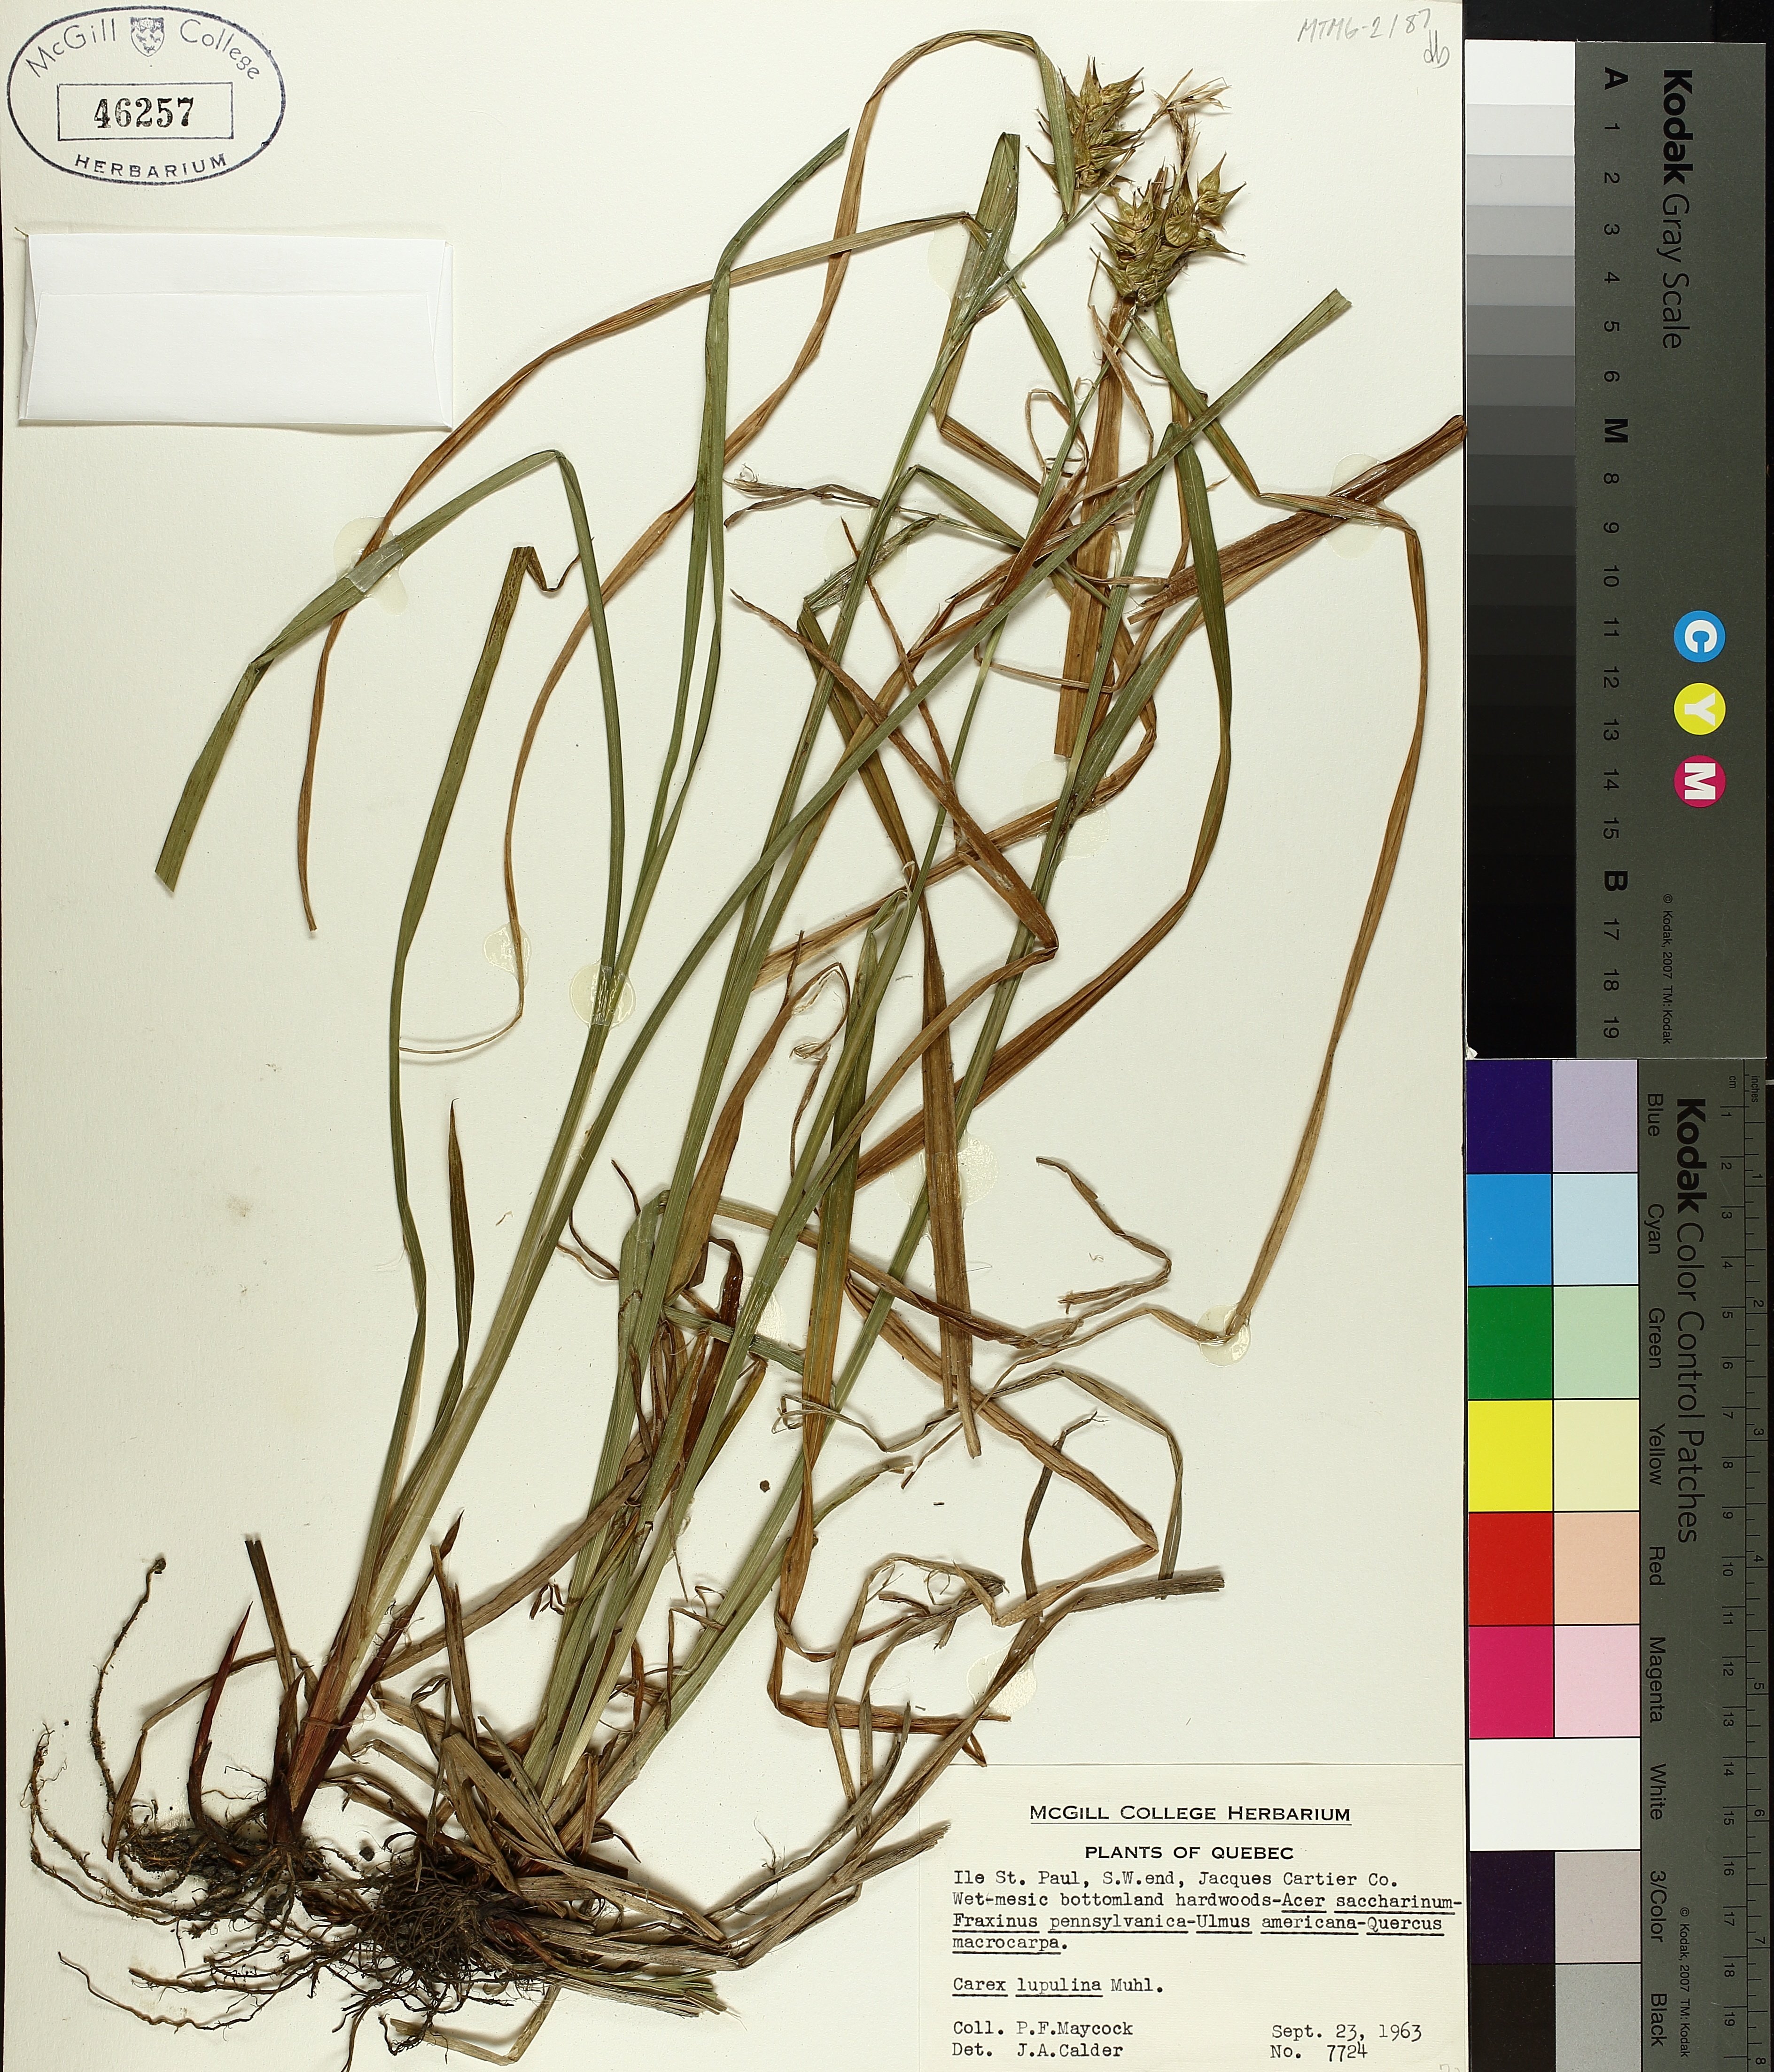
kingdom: Plantae
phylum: Tracheophyta
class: Liliopsida
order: Poales
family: Cyperaceae
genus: Carex
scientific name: Carex lupulina
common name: Hop sedge
